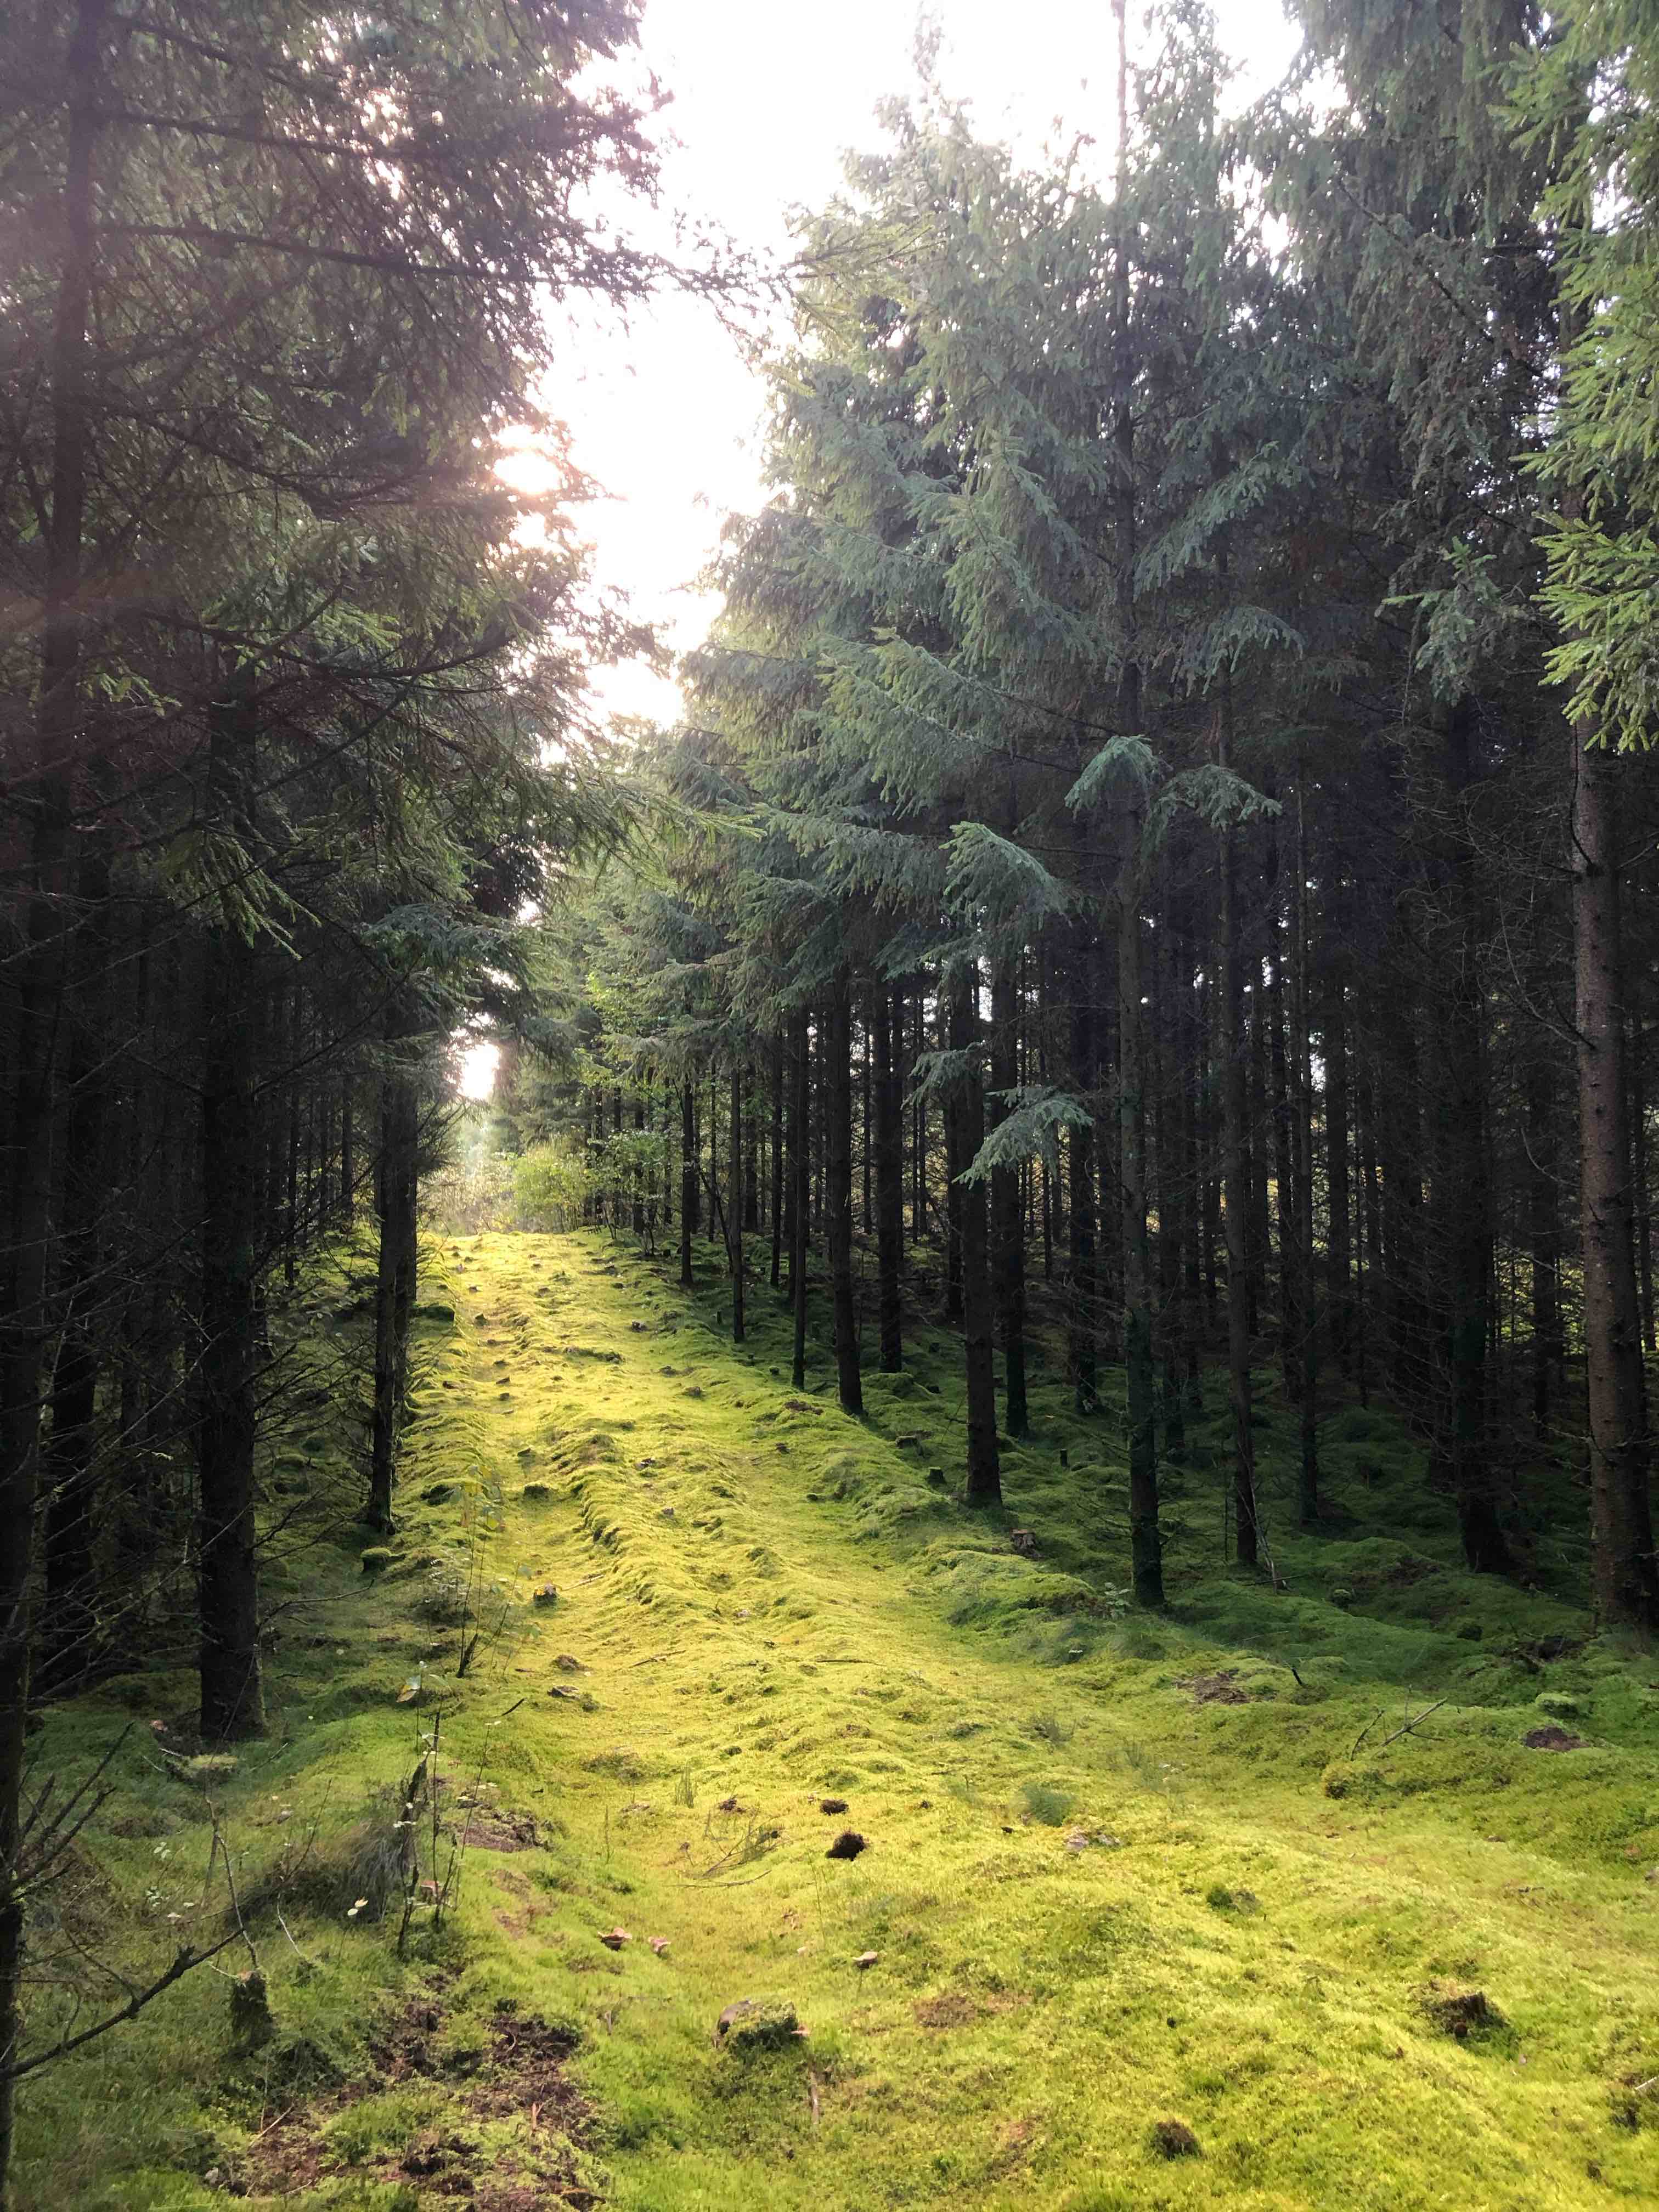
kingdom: Fungi
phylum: Basidiomycota
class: Agaricomycetes
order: Boletales
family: Tapinellaceae
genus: Tapinella
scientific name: Tapinella panuoides
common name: tømmer-viftesvamp
